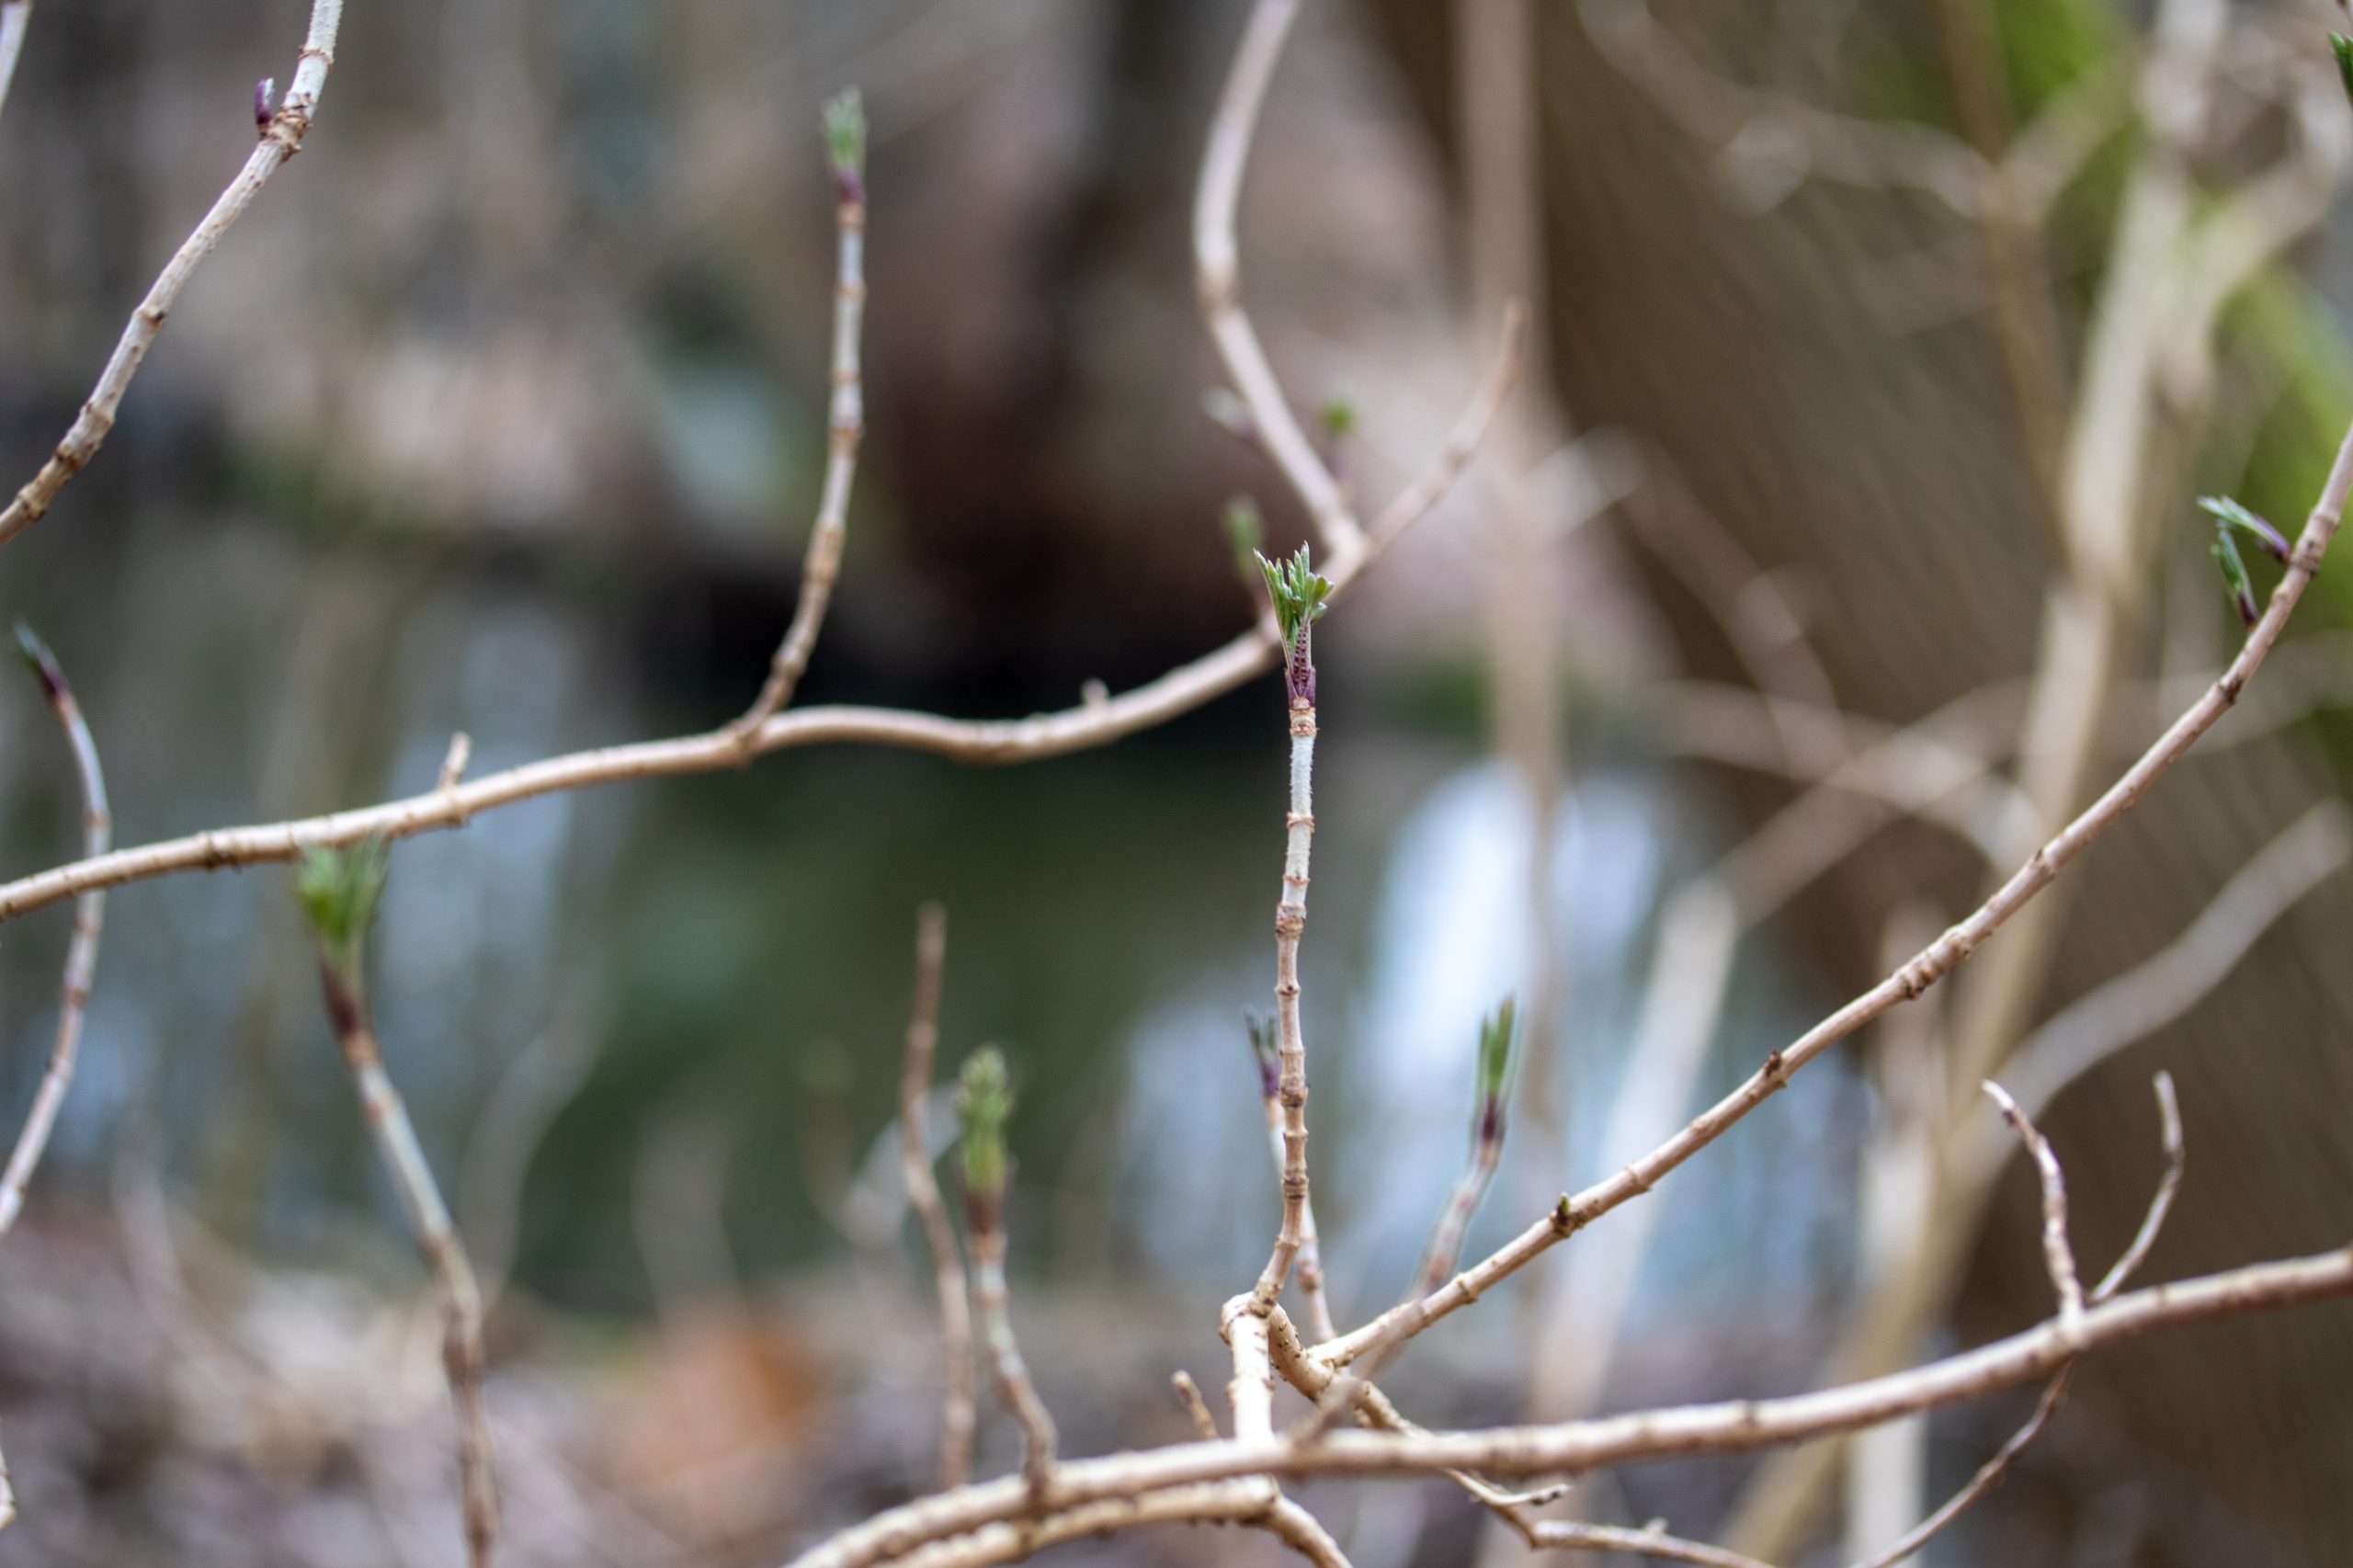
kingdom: Plantae
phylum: Tracheophyta
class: Magnoliopsida
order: Dipsacales
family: Viburnaceae
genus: Sambucus
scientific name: Sambucus nigra
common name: Almindelig hyld
